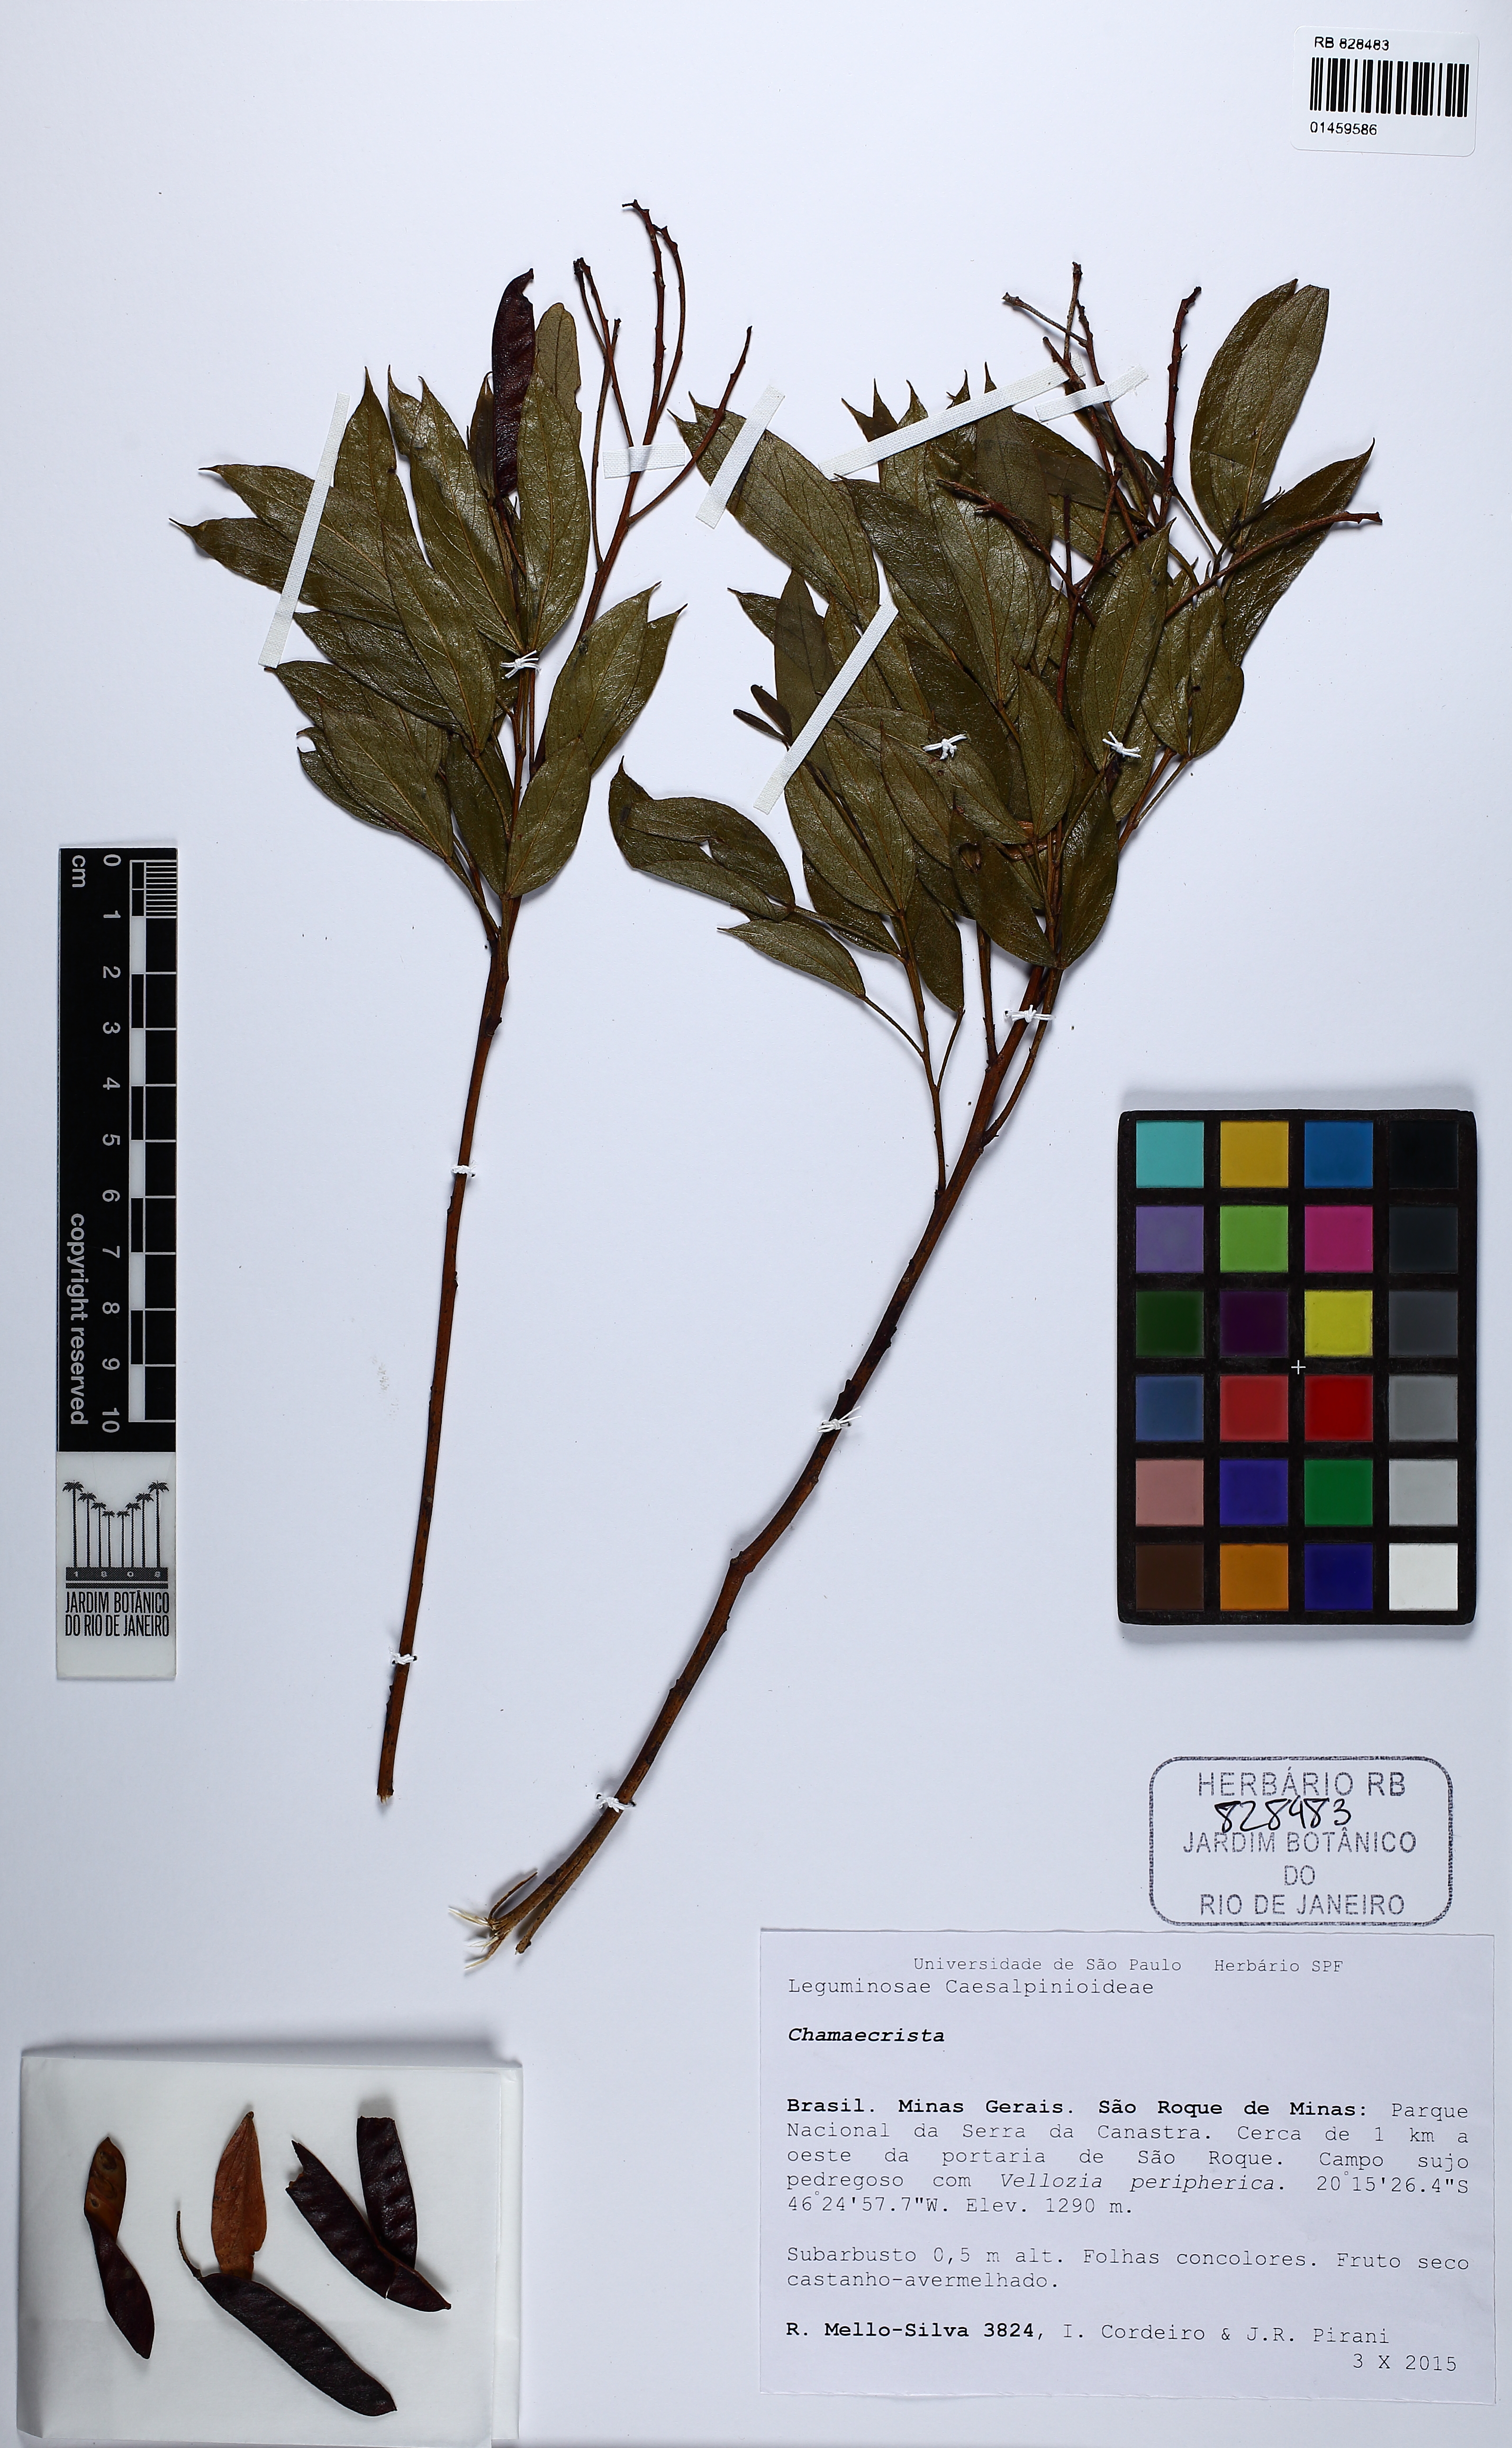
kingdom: Plantae
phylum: Tracheophyta
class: Magnoliopsida
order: Fabales
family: Fabaceae
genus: Chamaecrista
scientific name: Chamaecrista
